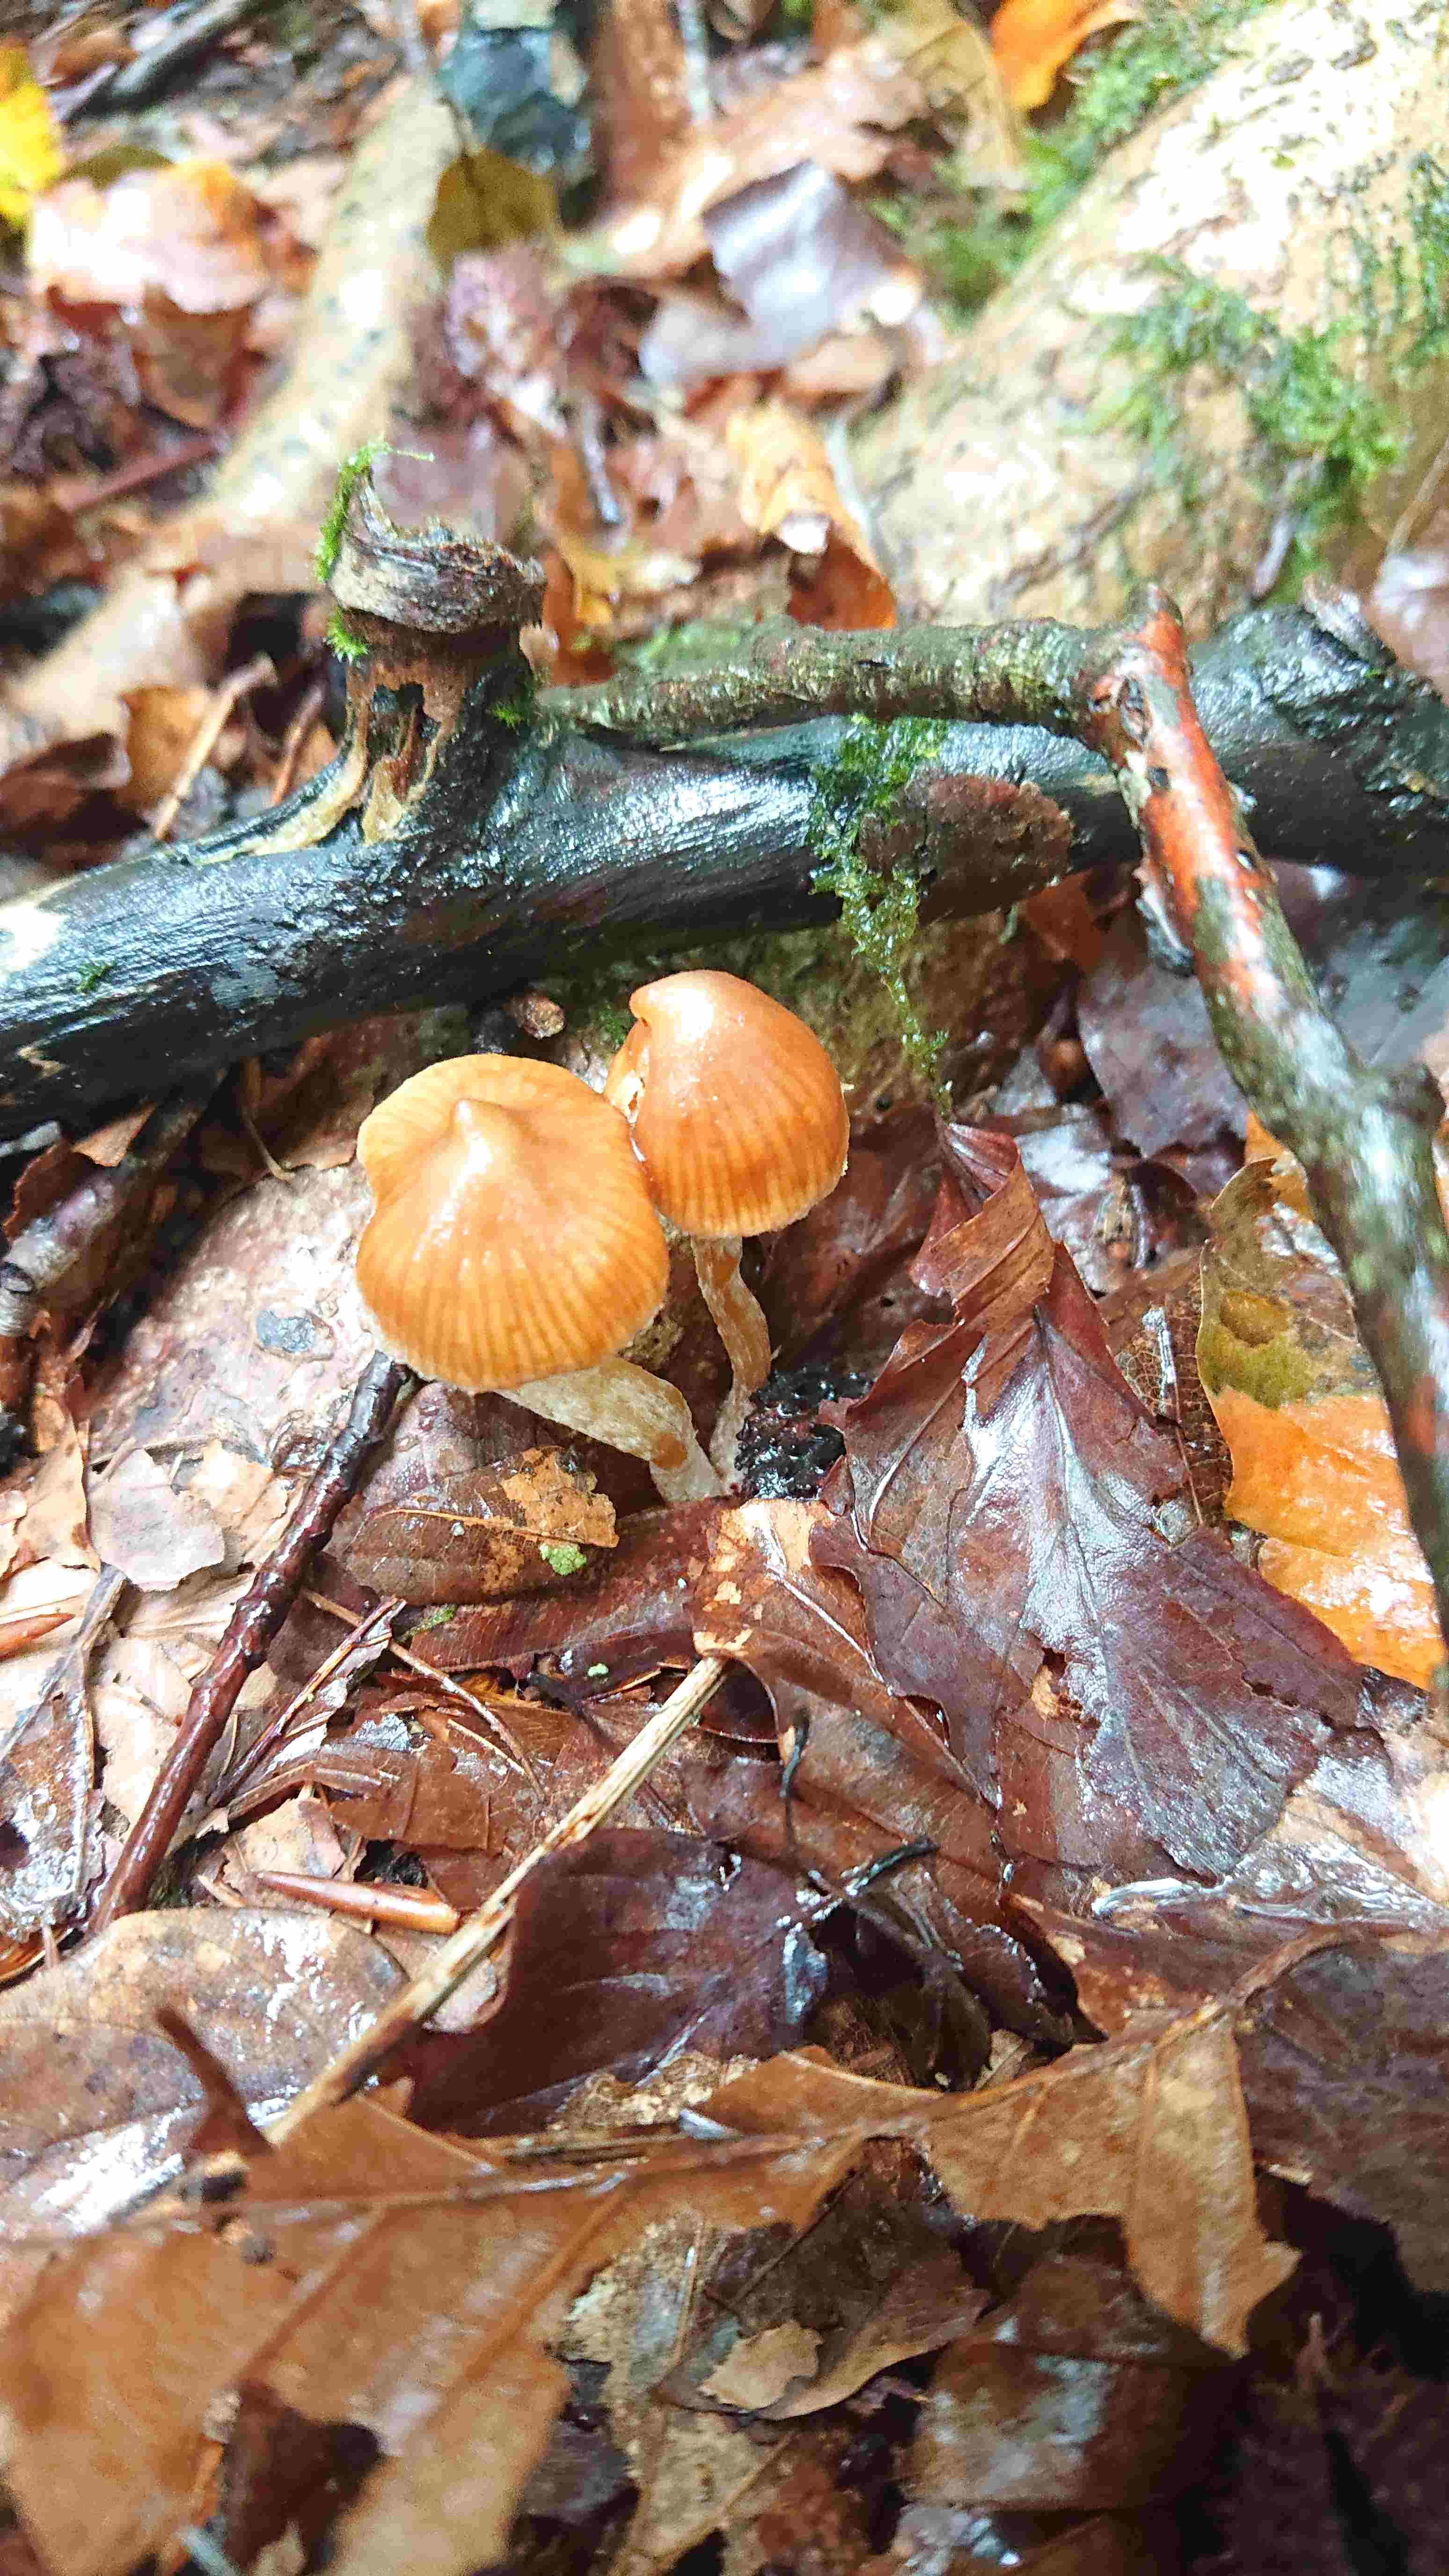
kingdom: Fungi
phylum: Basidiomycota
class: Agaricomycetes
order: Agaricales
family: Cortinariaceae
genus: Cortinarius
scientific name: Cortinarius
